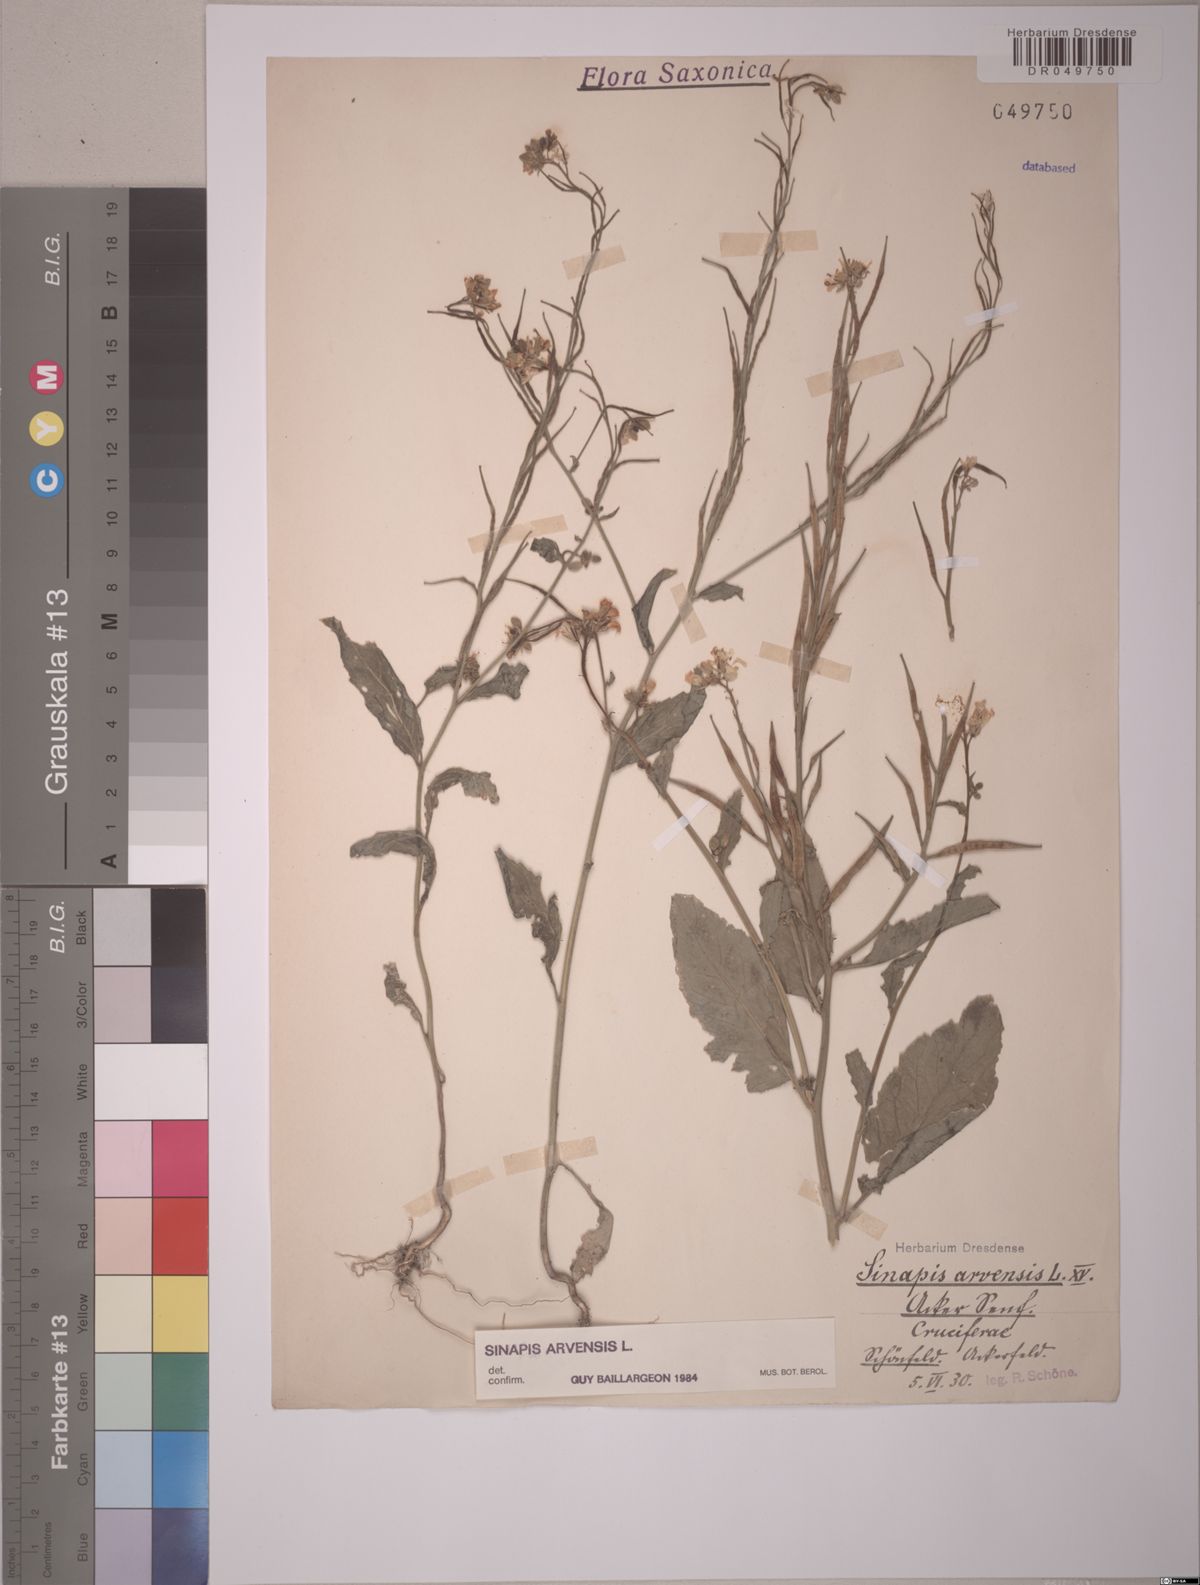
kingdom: Plantae
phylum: Tracheophyta
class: Magnoliopsida
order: Brassicales
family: Brassicaceae
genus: Sinapis
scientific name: Sinapis arvensis
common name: Charlock
